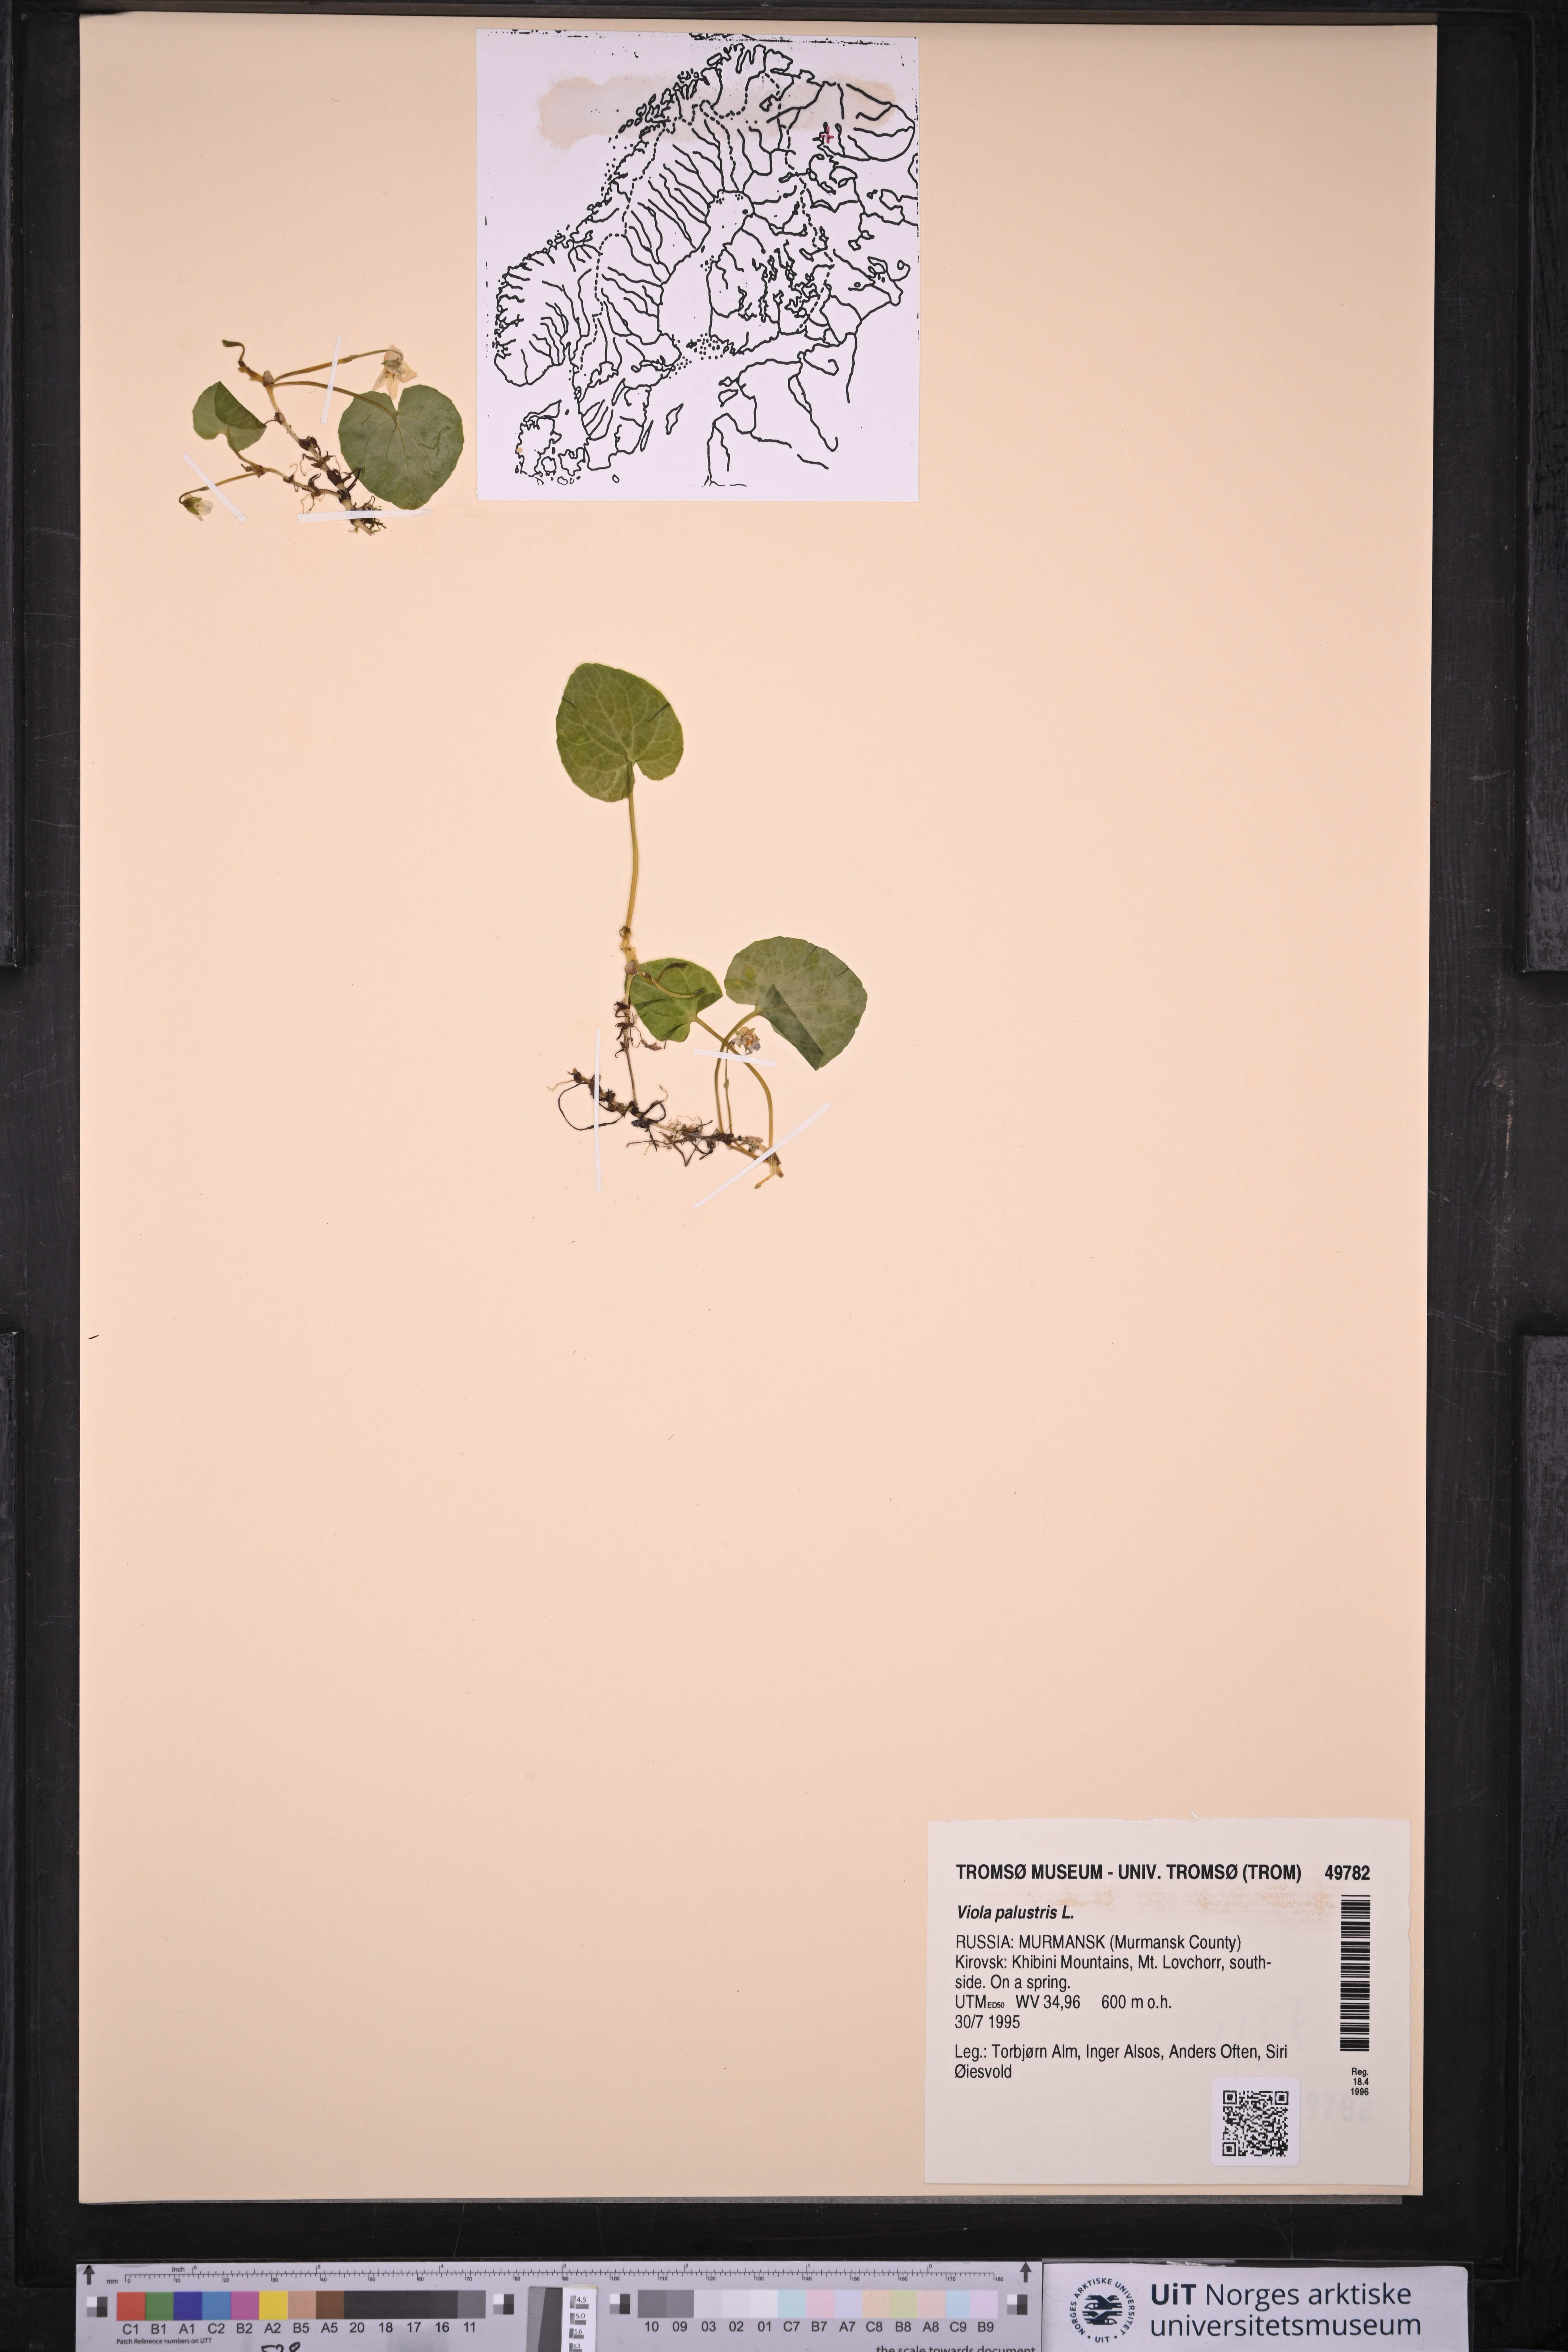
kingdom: Plantae
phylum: Tracheophyta
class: Magnoliopsida
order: Malpighiales
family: Violaceae
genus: Viola
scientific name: Viola palustris
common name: Marsh violet
